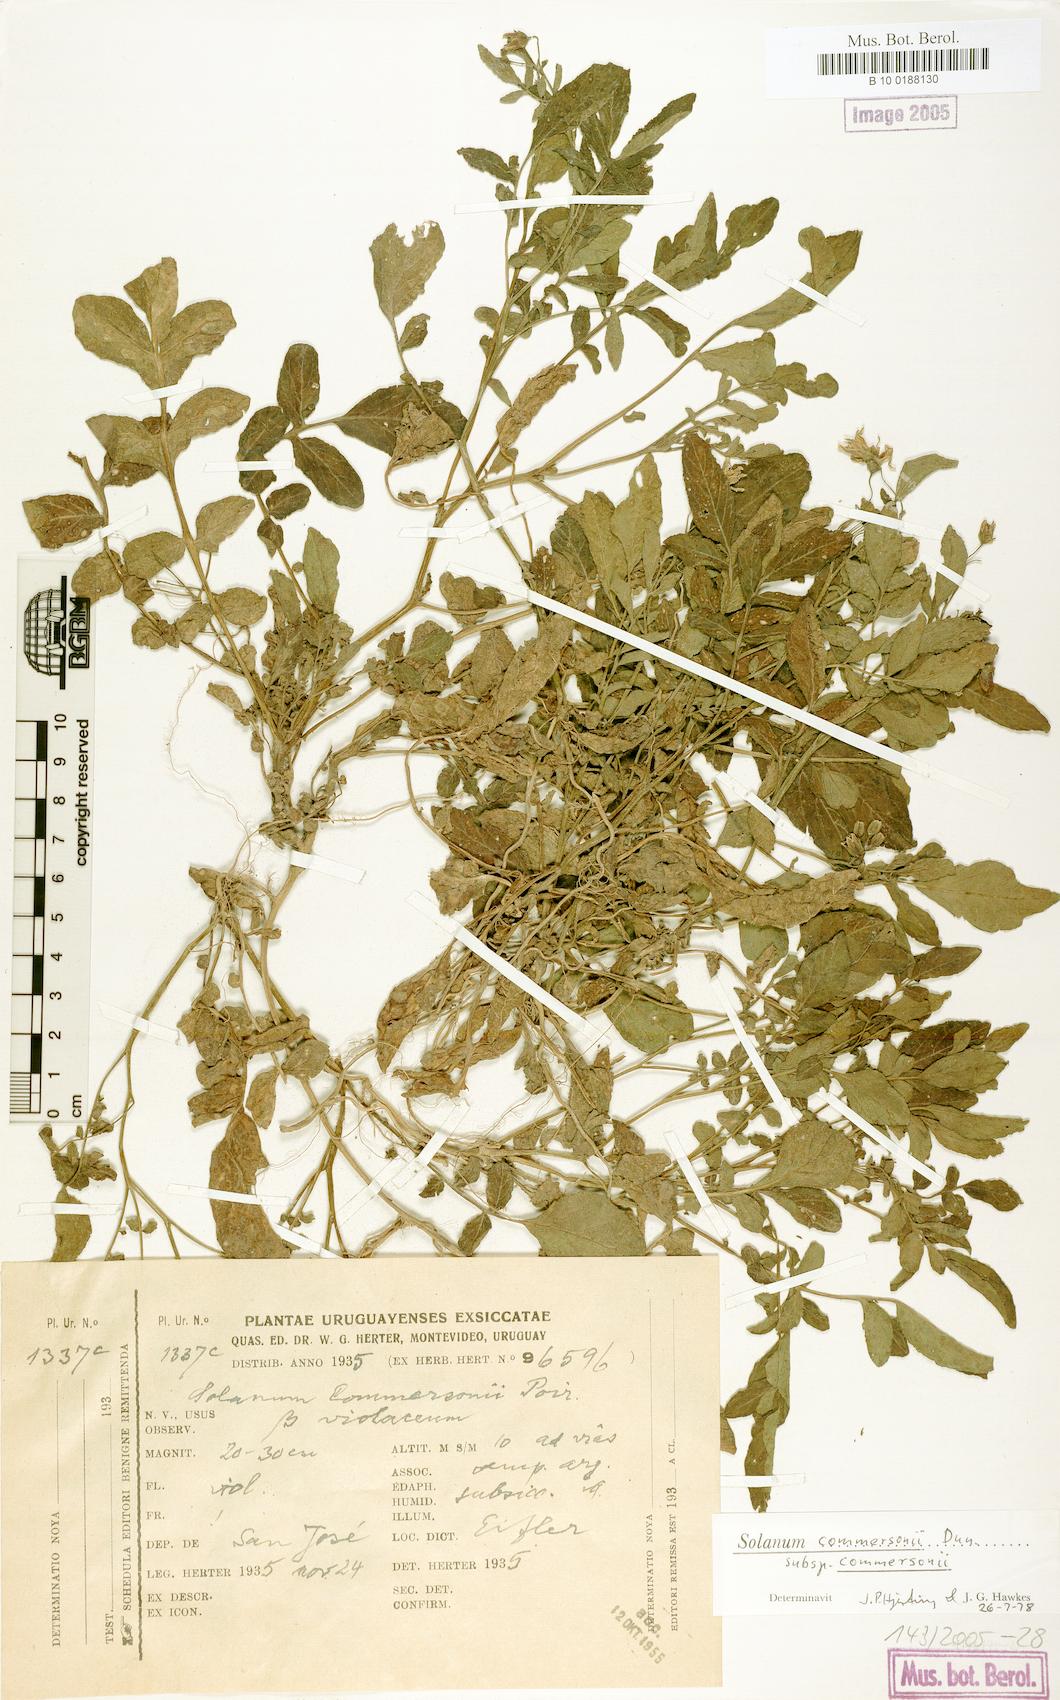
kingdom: Plantae
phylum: Tracheophyta
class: Magnoliopsida
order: Solanales
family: Solanaceae
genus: Solanum
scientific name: Solanum commersonii
